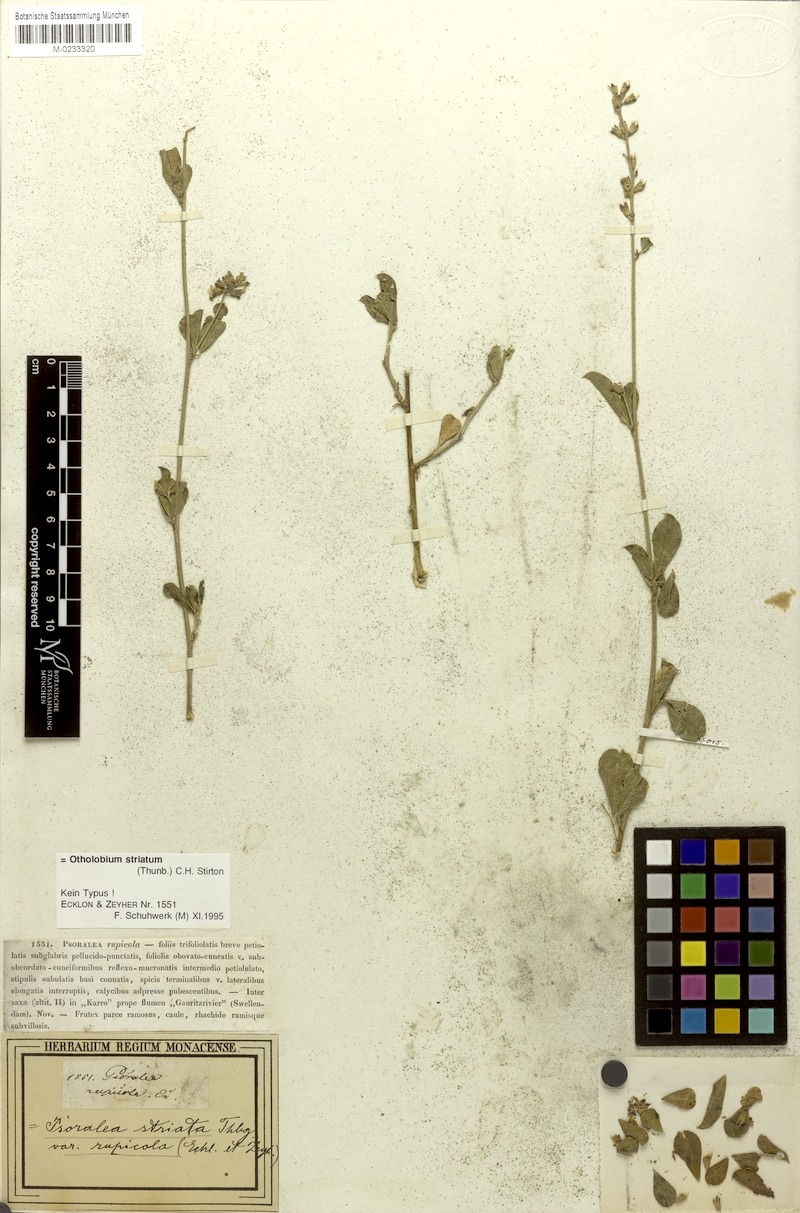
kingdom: Plantae
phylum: Tracheophyta
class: Magnoliopsida
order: Fabales
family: Fabaceae
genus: Psoralea
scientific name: Psoralea striata
